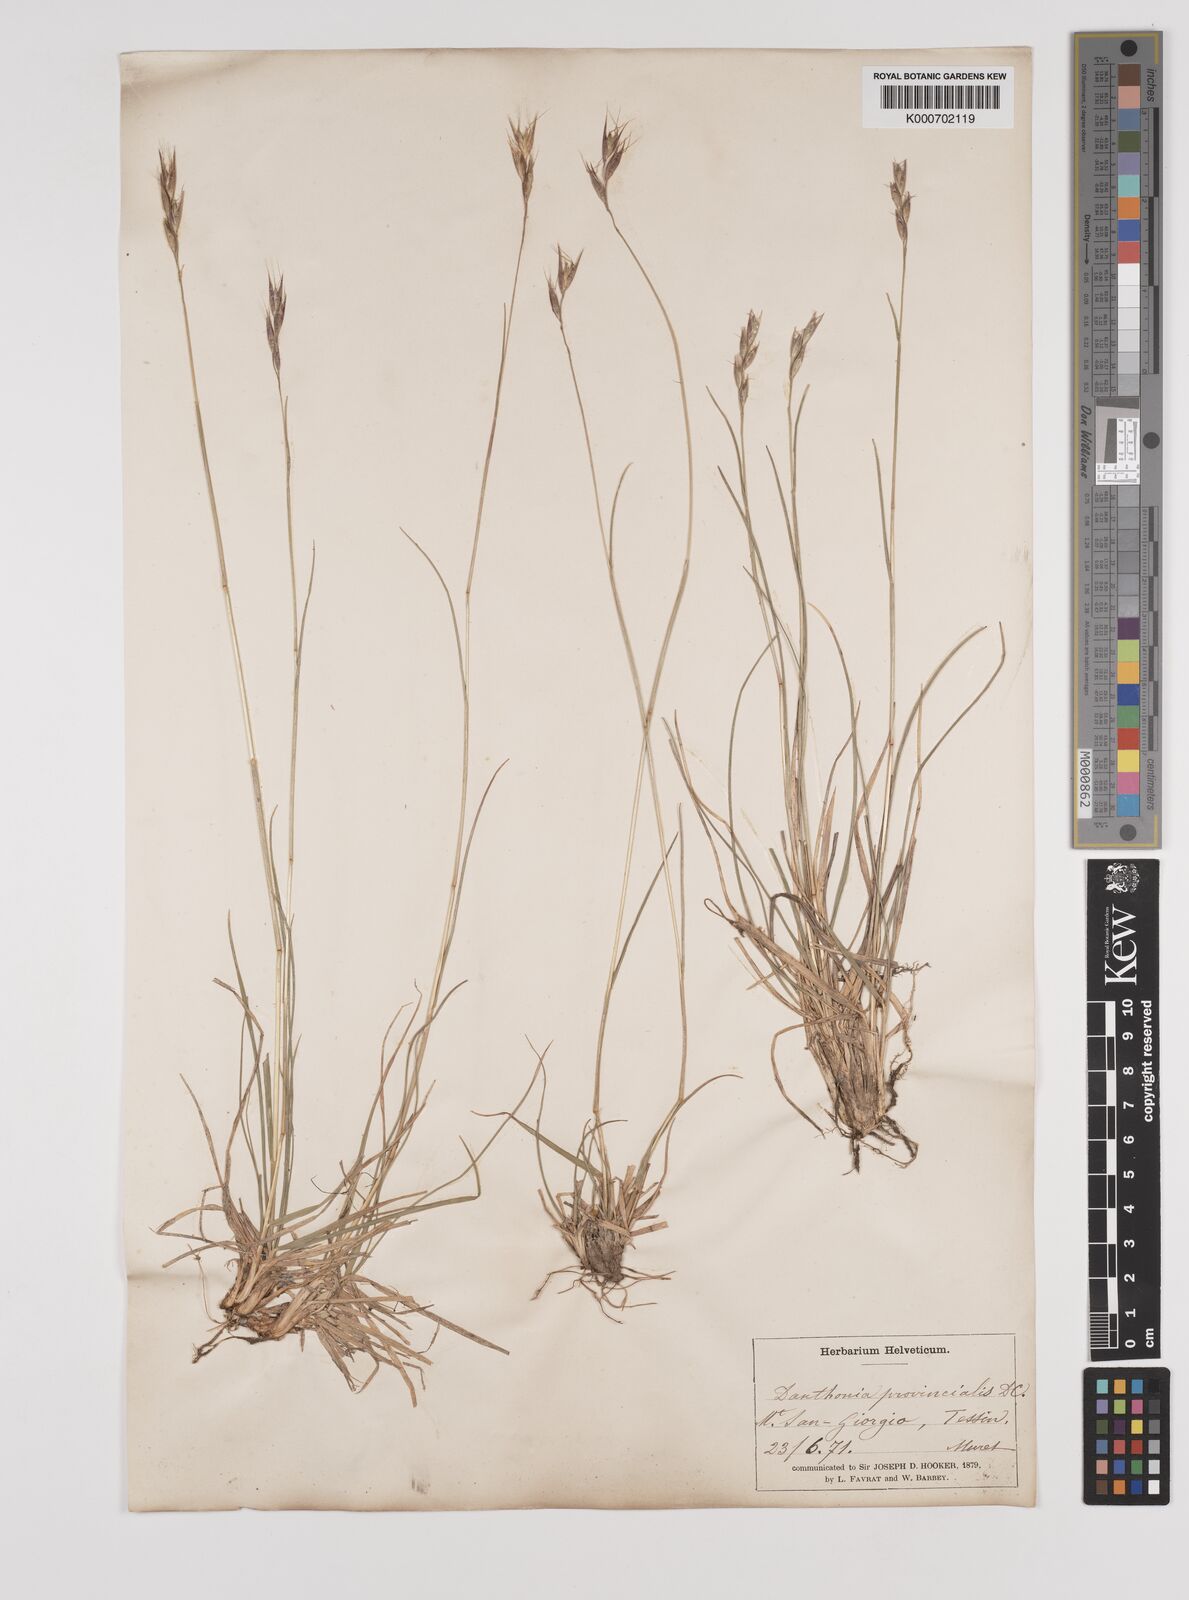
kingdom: Plantae
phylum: Tracheophyta
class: Liliopsida
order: Poales
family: Poaceae
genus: Danthonia
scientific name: Danthonia alpina
